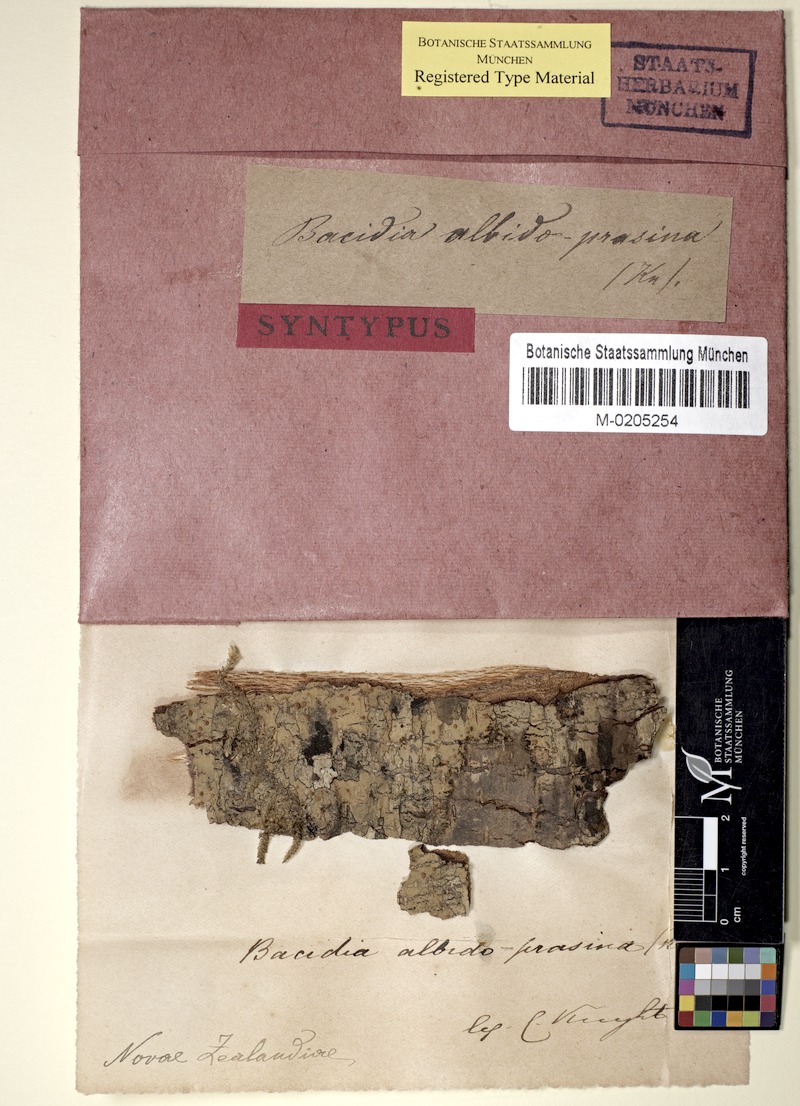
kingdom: Fungi
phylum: Ascomycota
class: Lecanoromycetes
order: Lecanorales
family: Ramalinaceae
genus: Bacidia
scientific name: Bacidia
